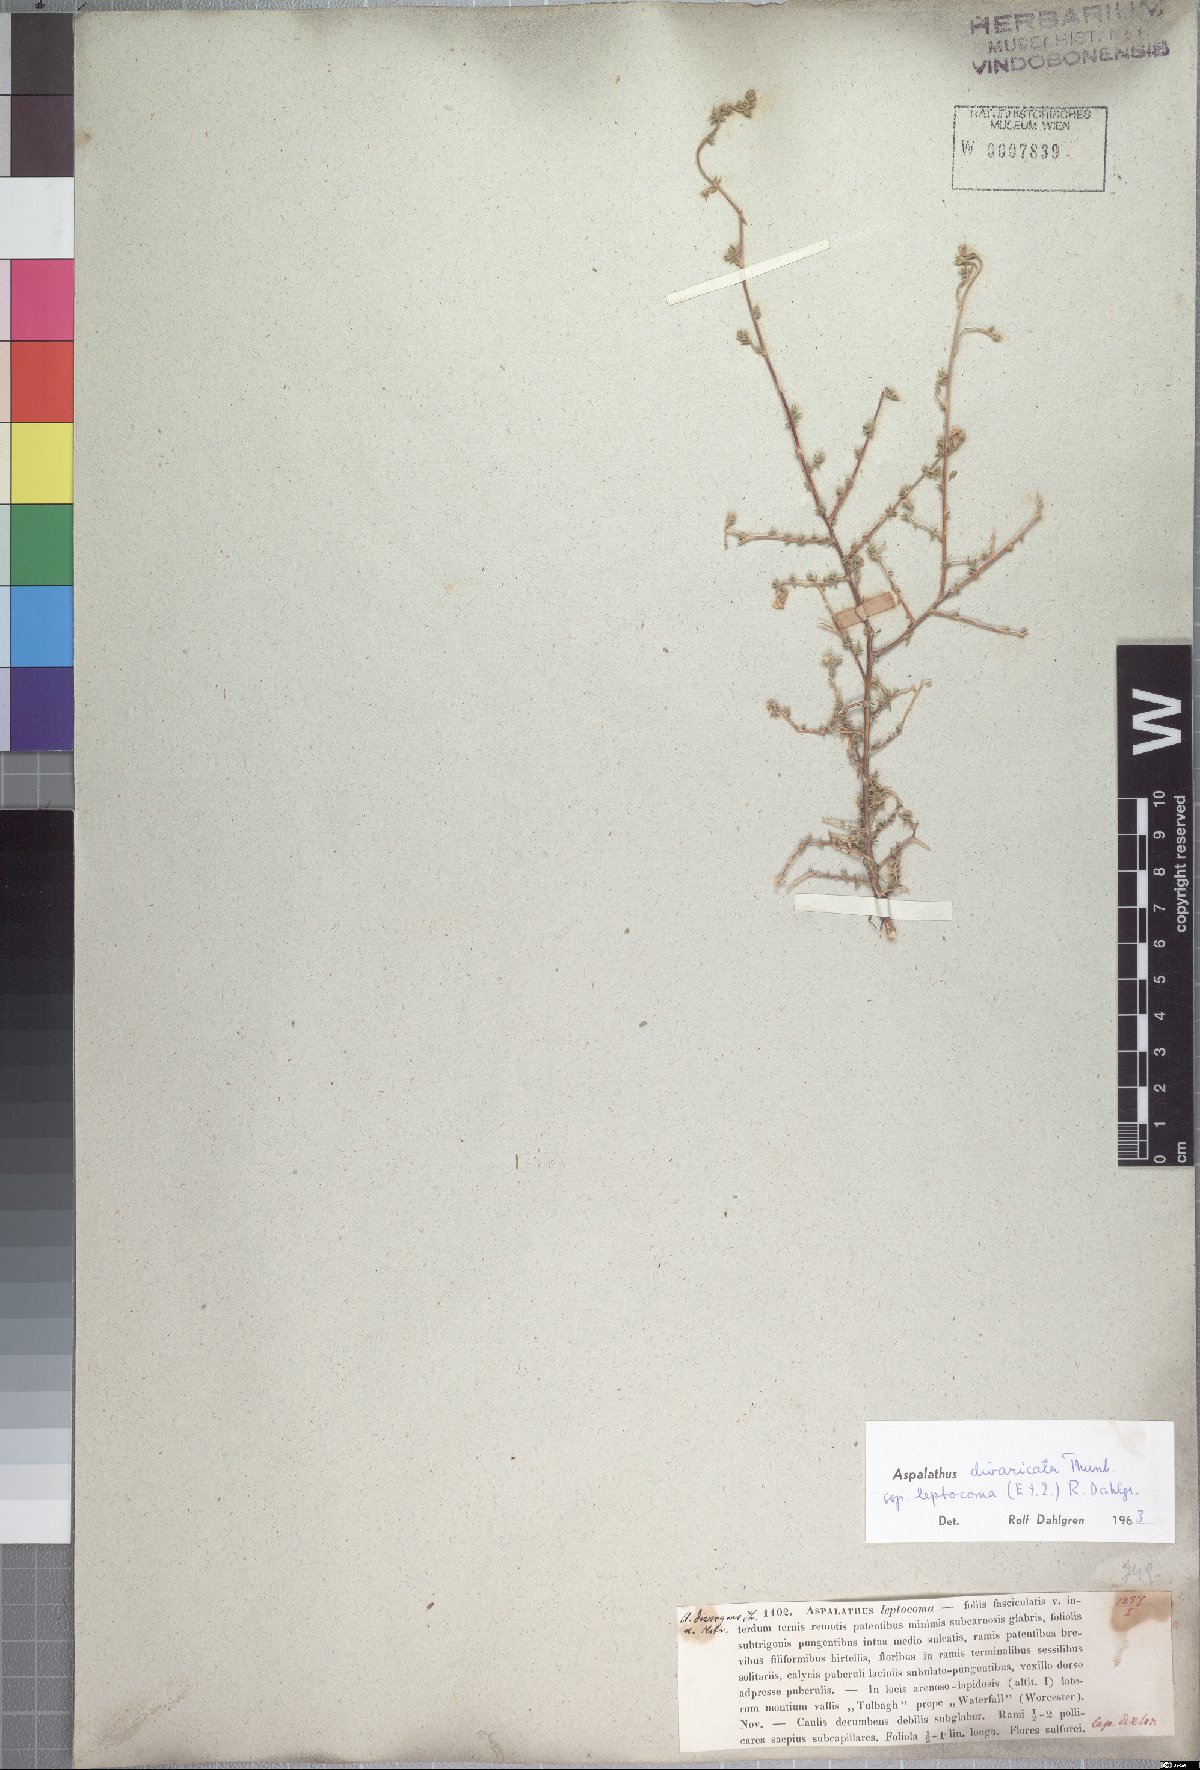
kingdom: Plantae
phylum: Tracheophyta
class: Magnoliopsida
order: Fabales
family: Fabaceae
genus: Aspalathus
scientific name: Aspalathus leptocoma
